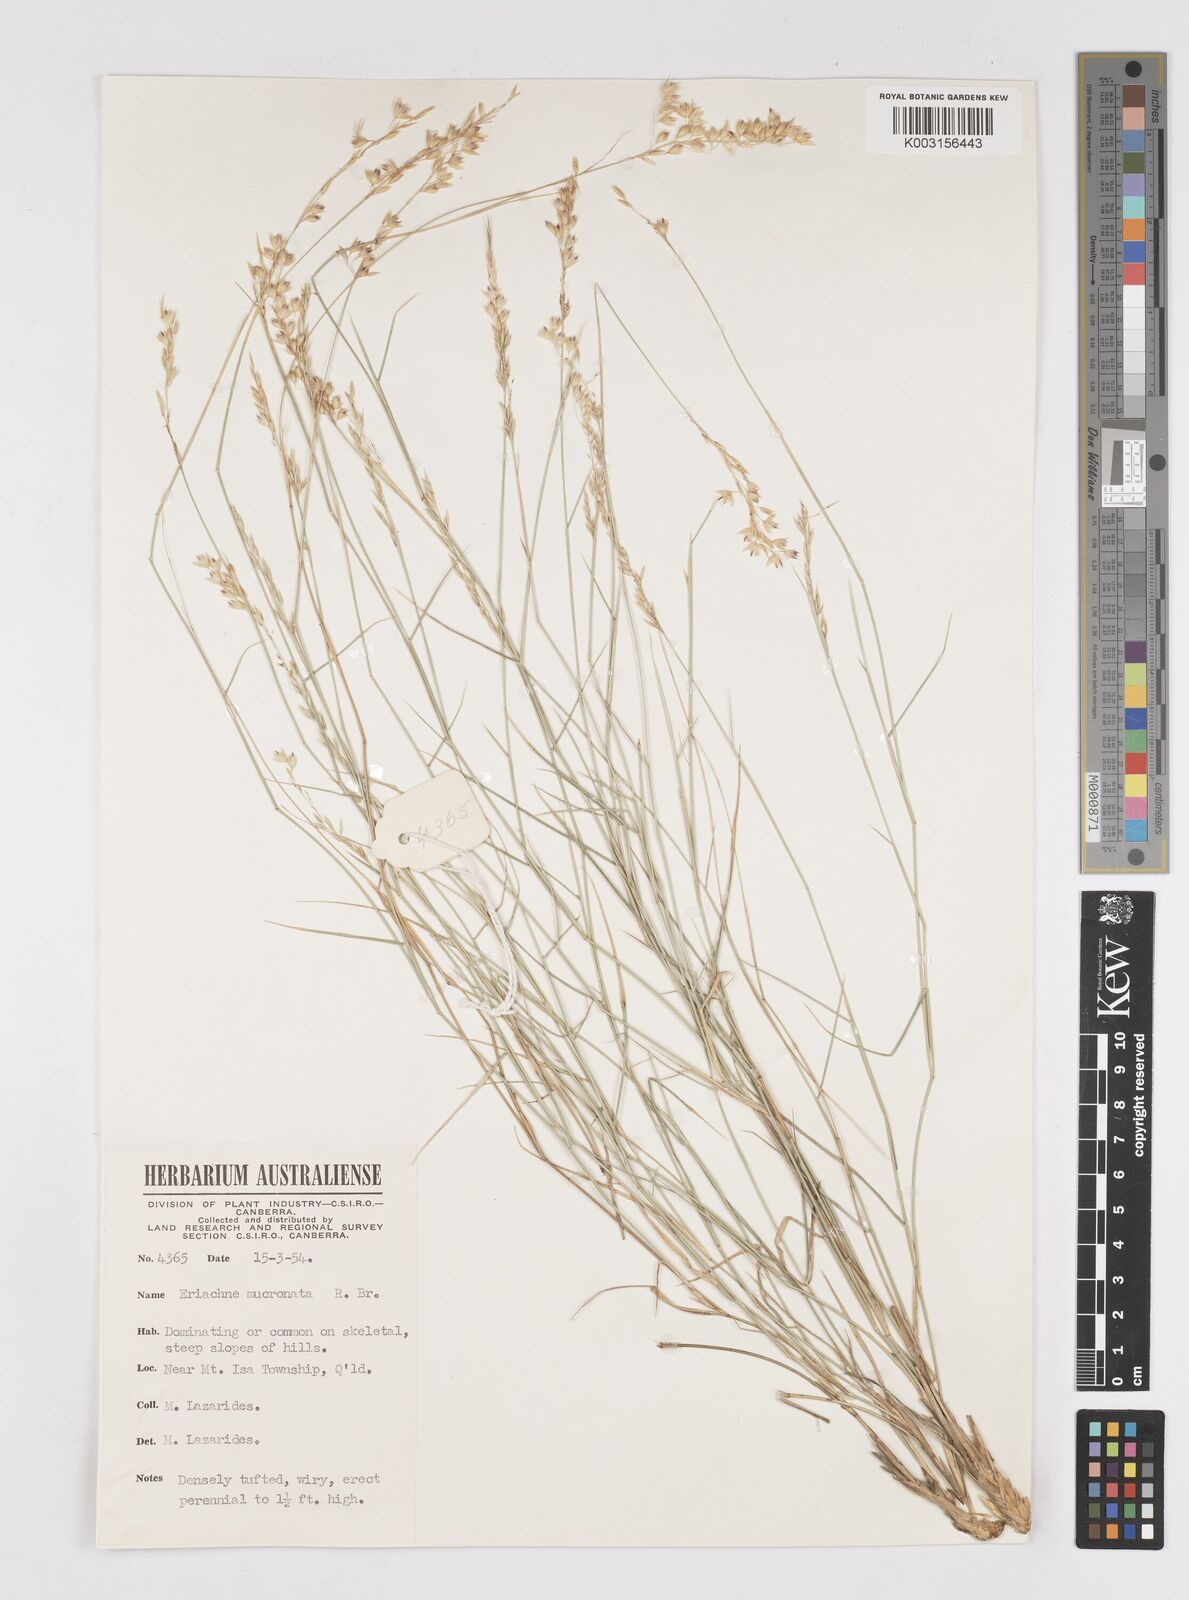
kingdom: Plantae
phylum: Tracheophyta
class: Liliopsida
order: Poales
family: Poaceae
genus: Eriachne
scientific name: Eriachne mucronata
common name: Mountain wanderrie grass
